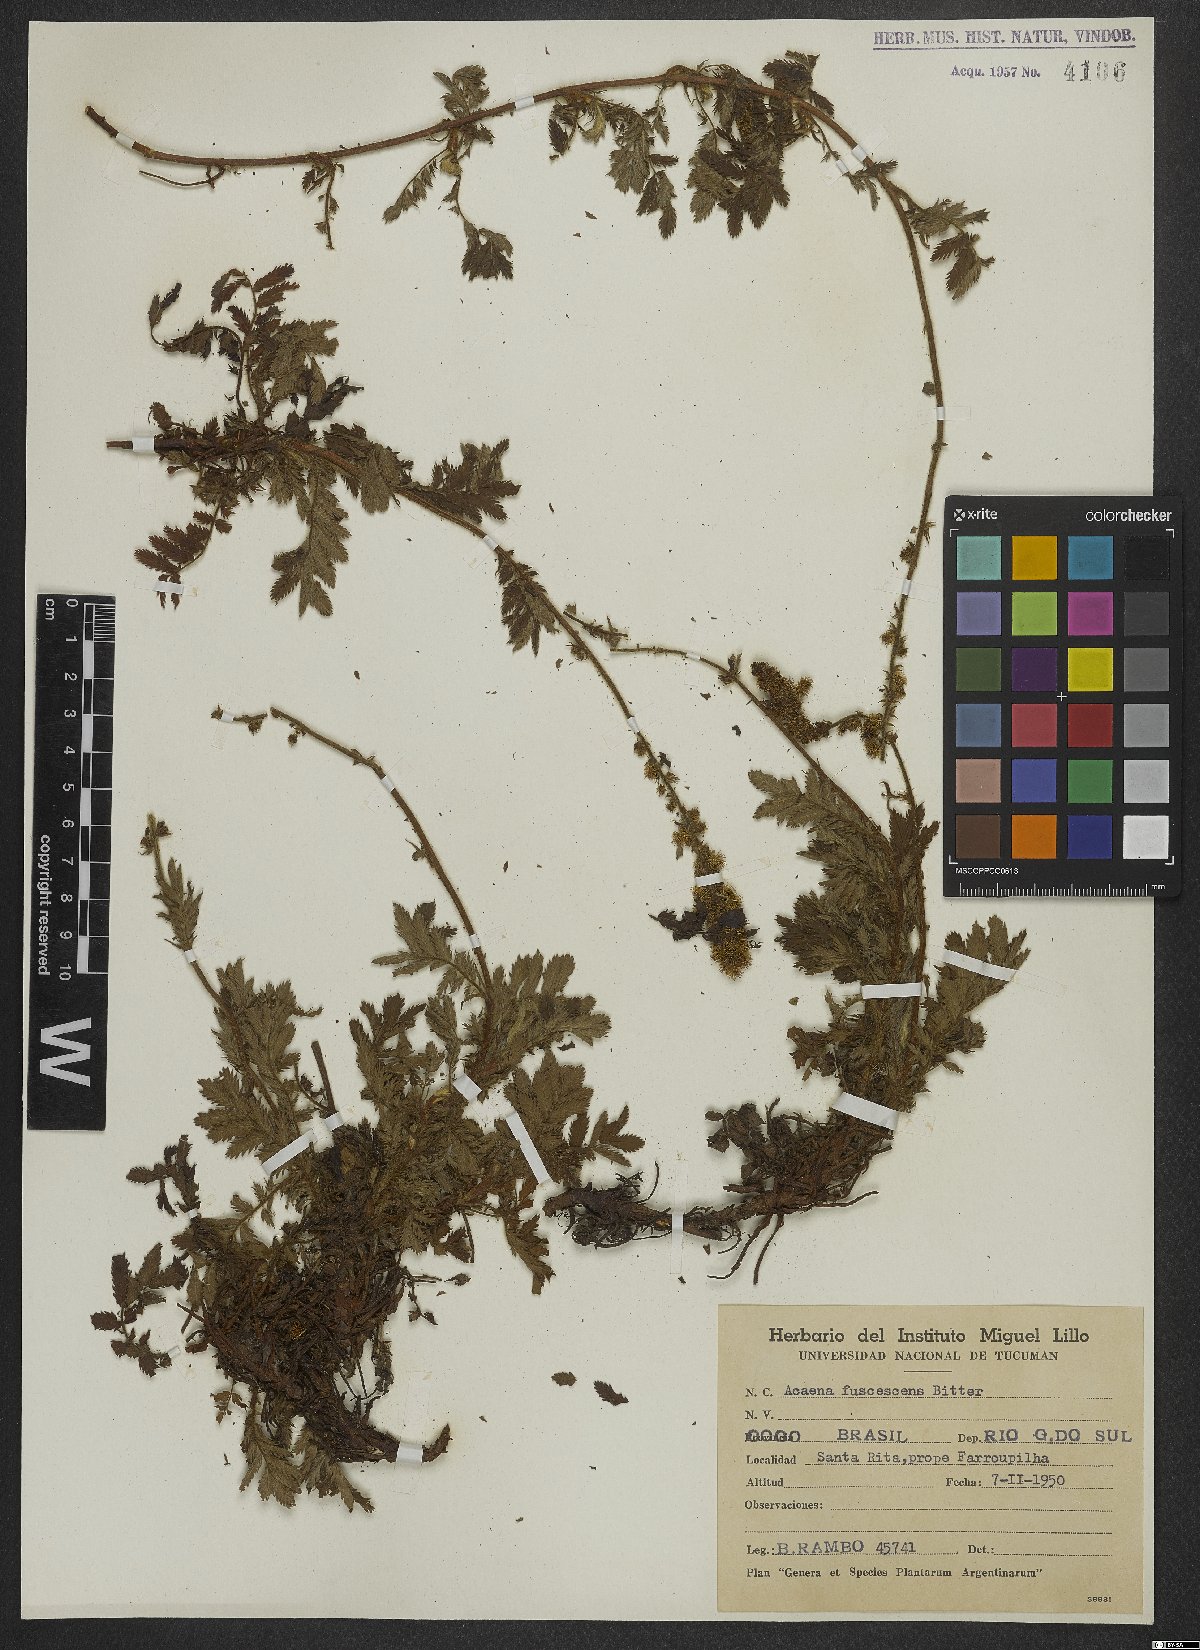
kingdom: Plantae
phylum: Tracheophyta
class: Magnoliopsida
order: Rosales
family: Rosaceae
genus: Acaena
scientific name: Acaena fuscescens
